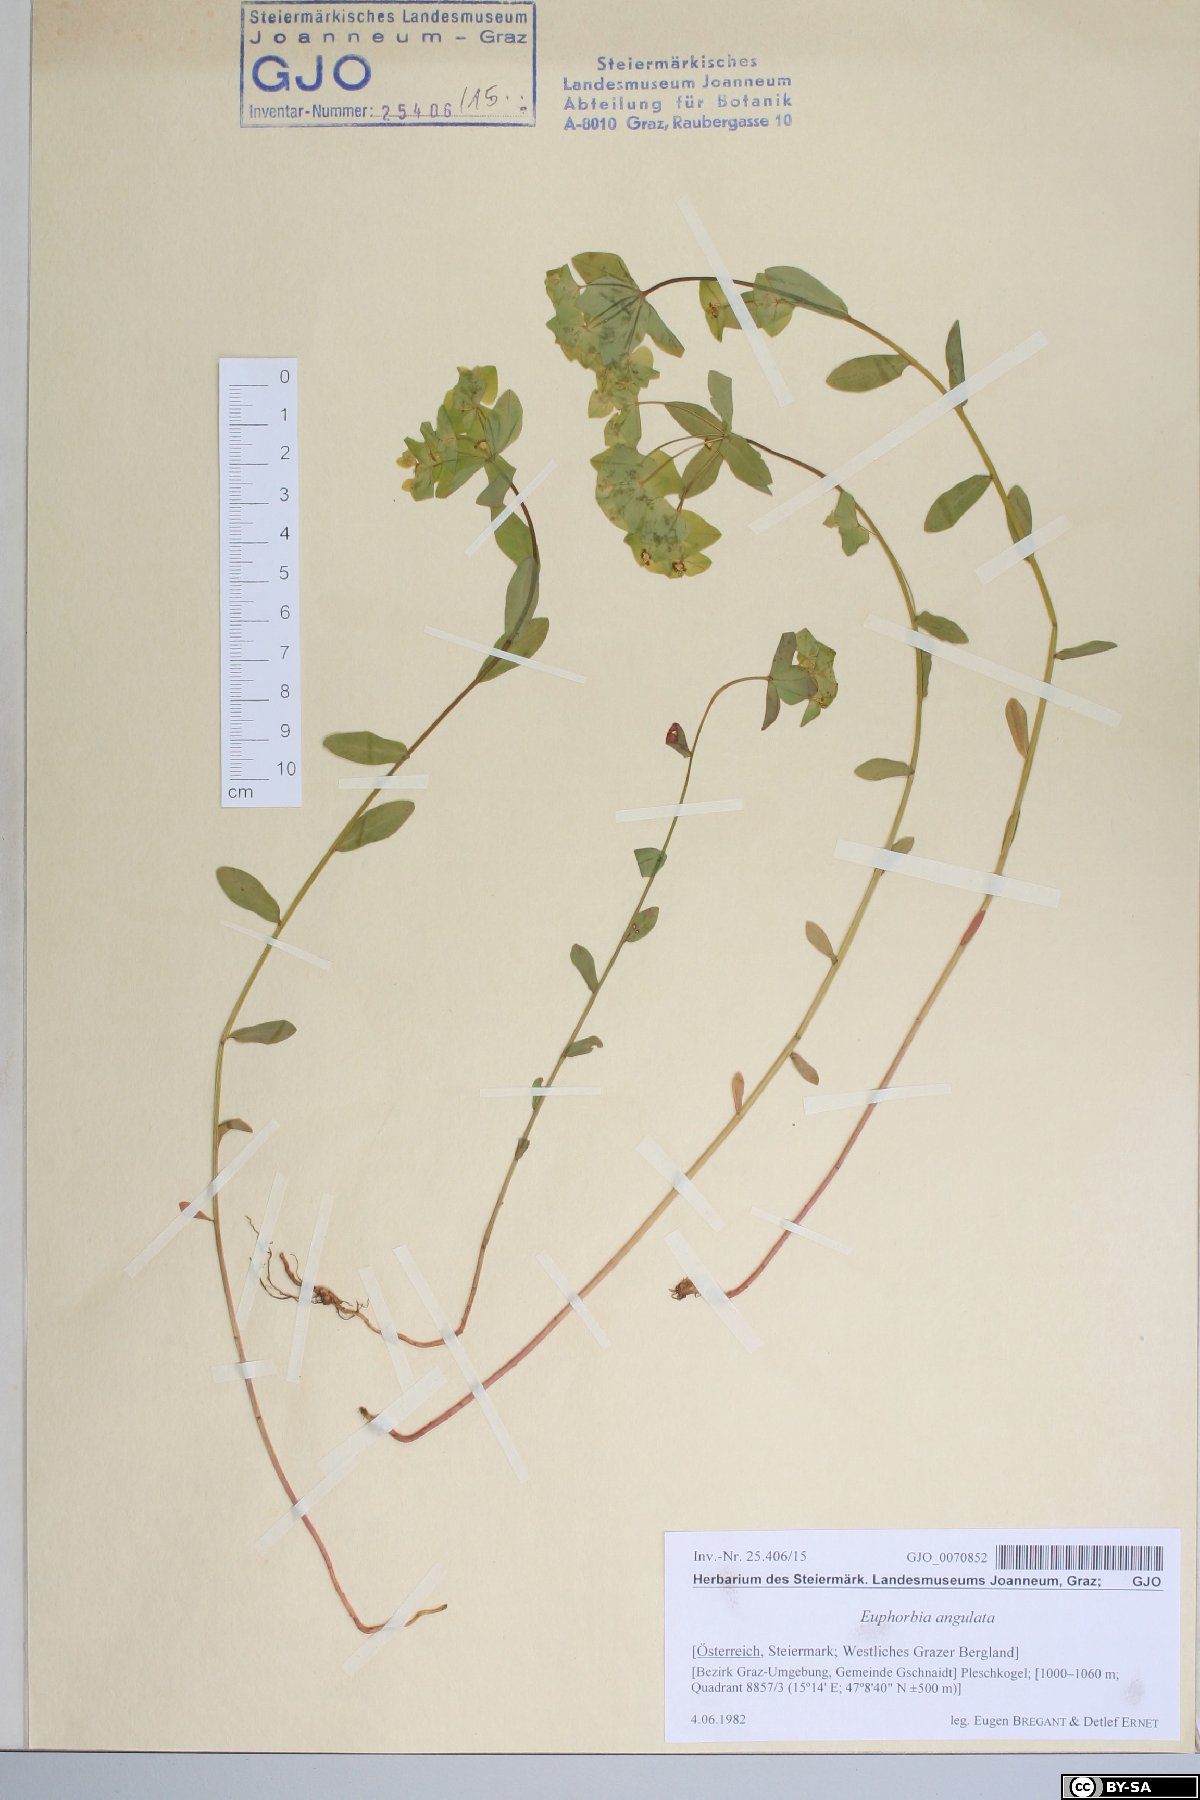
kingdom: Plantae
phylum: Tracheophyta
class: Magnoliopsida
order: Malpighiales
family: Euphorbiaceae
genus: Euphorbia
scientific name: Euphorbia angulata
